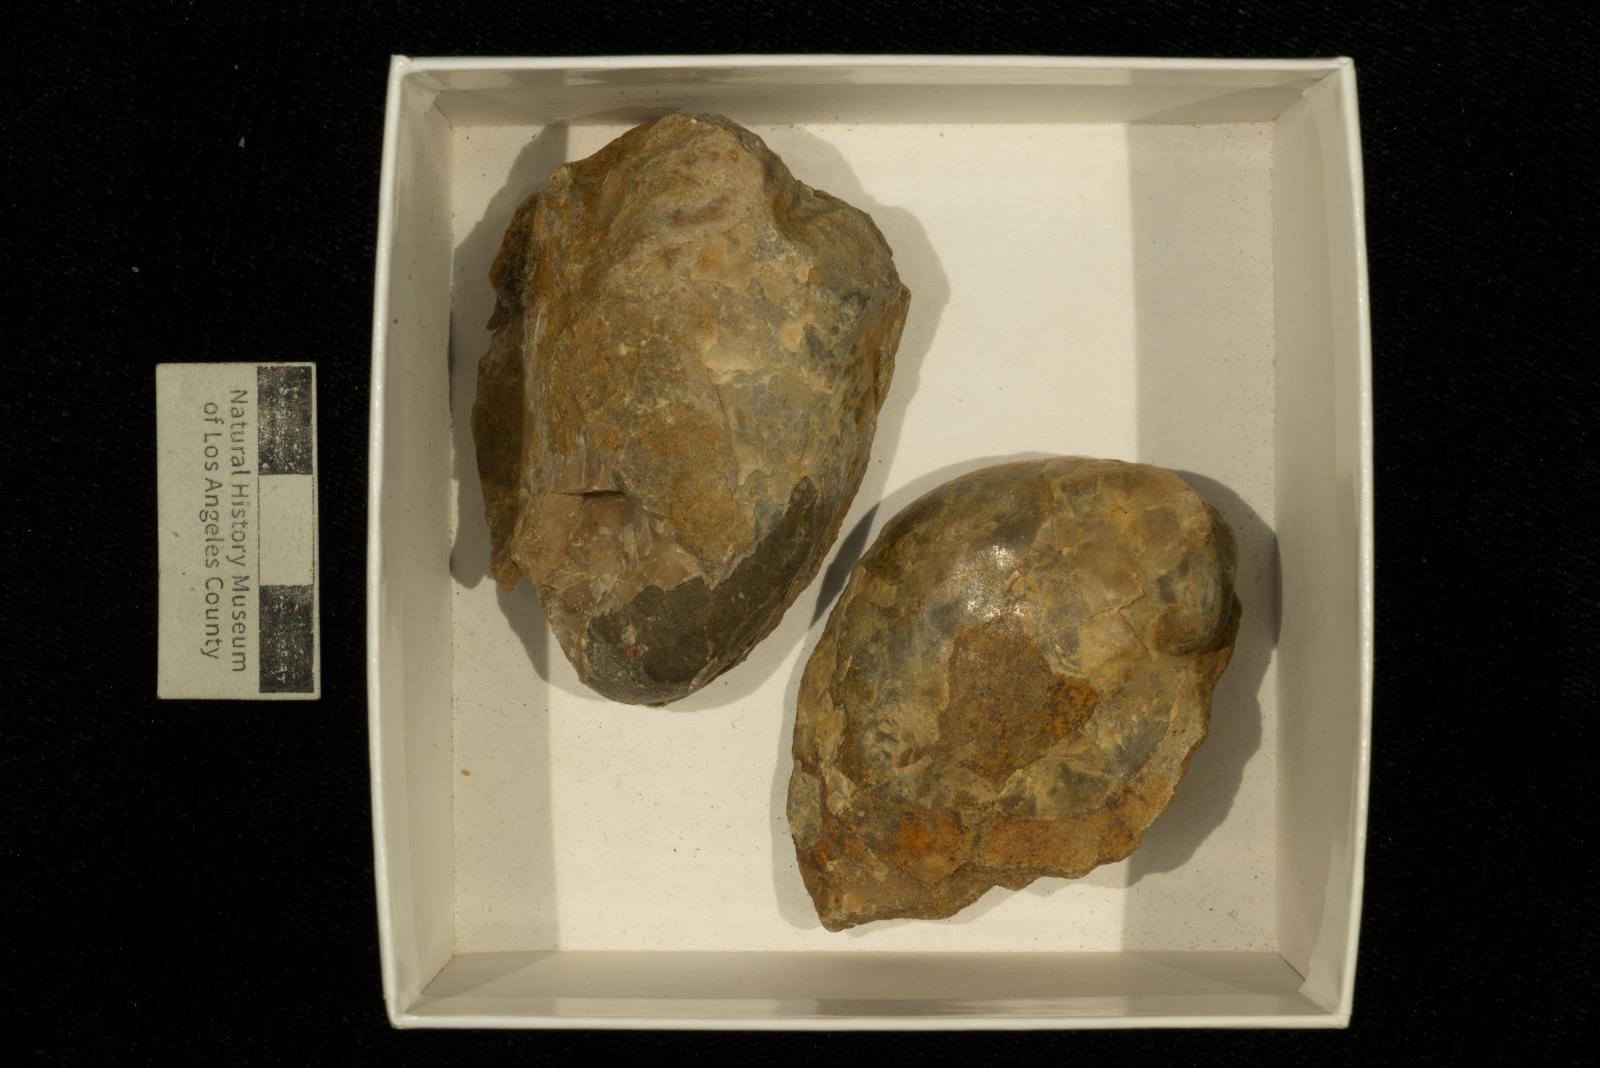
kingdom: Animalia
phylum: Mollusca
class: Bivalvia
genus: Phygraea
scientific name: Phygraea
